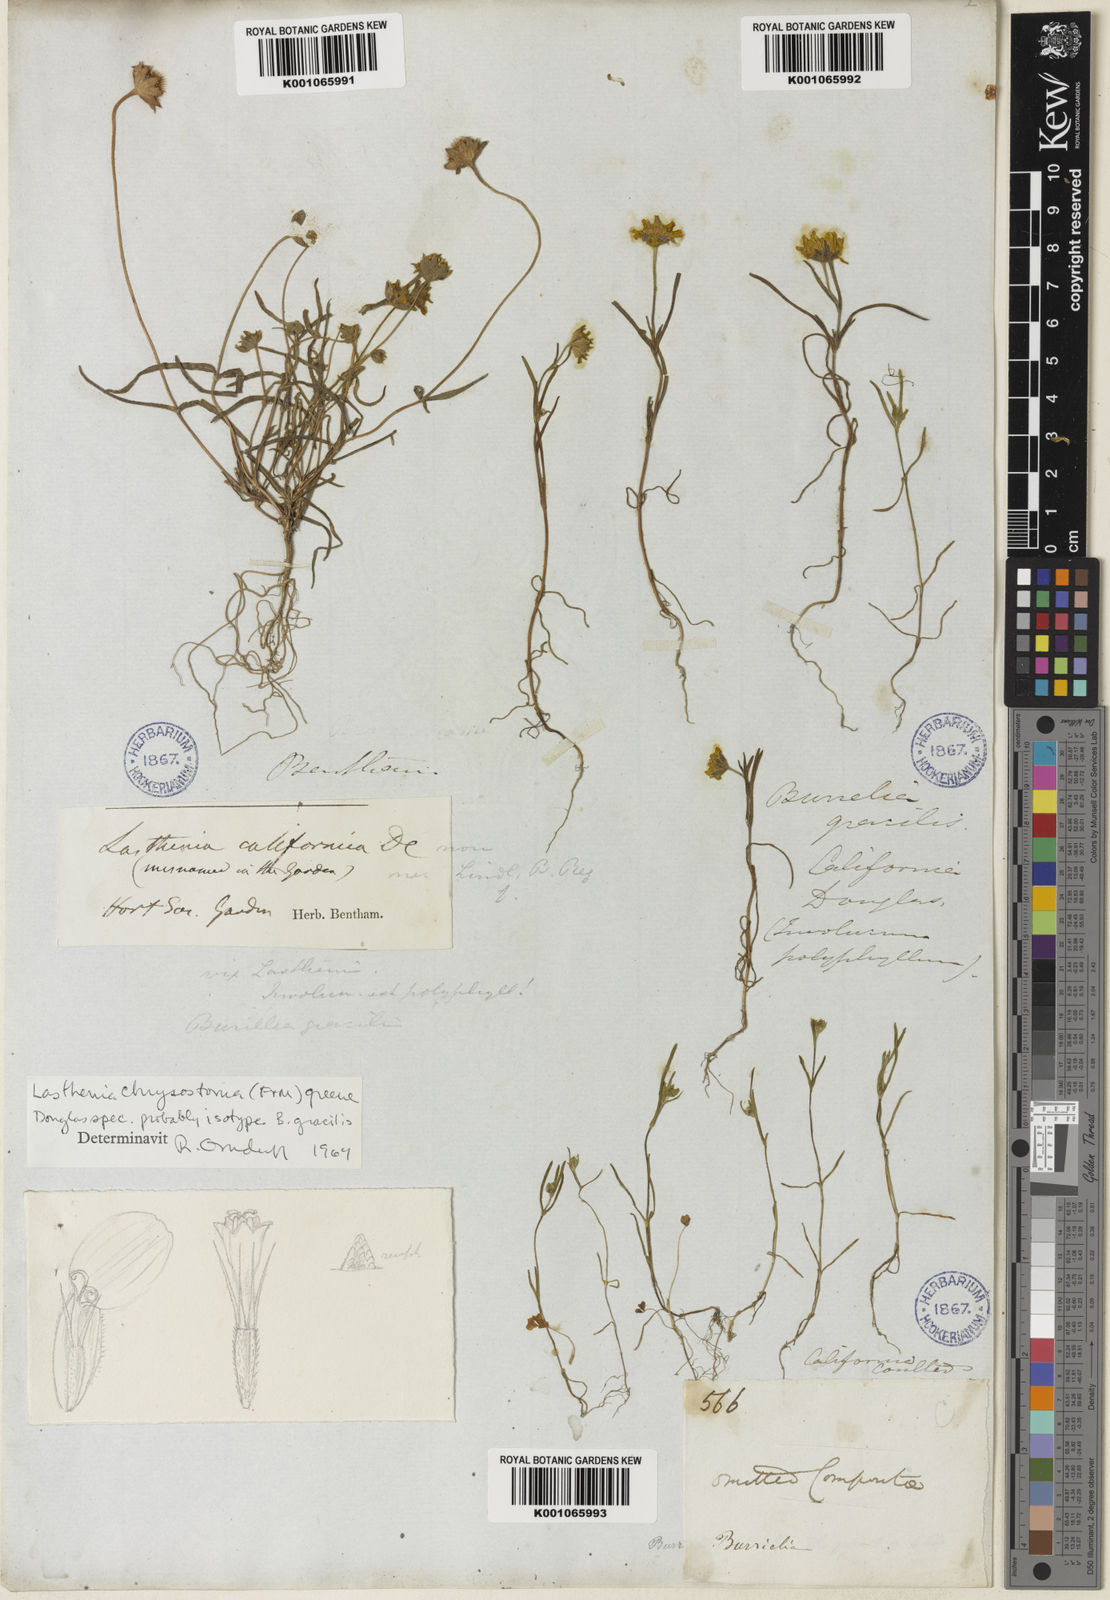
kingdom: Plantae
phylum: Tracheophyta
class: Magnoliopsida
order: Asterales
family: Asteraceae
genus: Lasthenia
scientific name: Lasthenia californica
